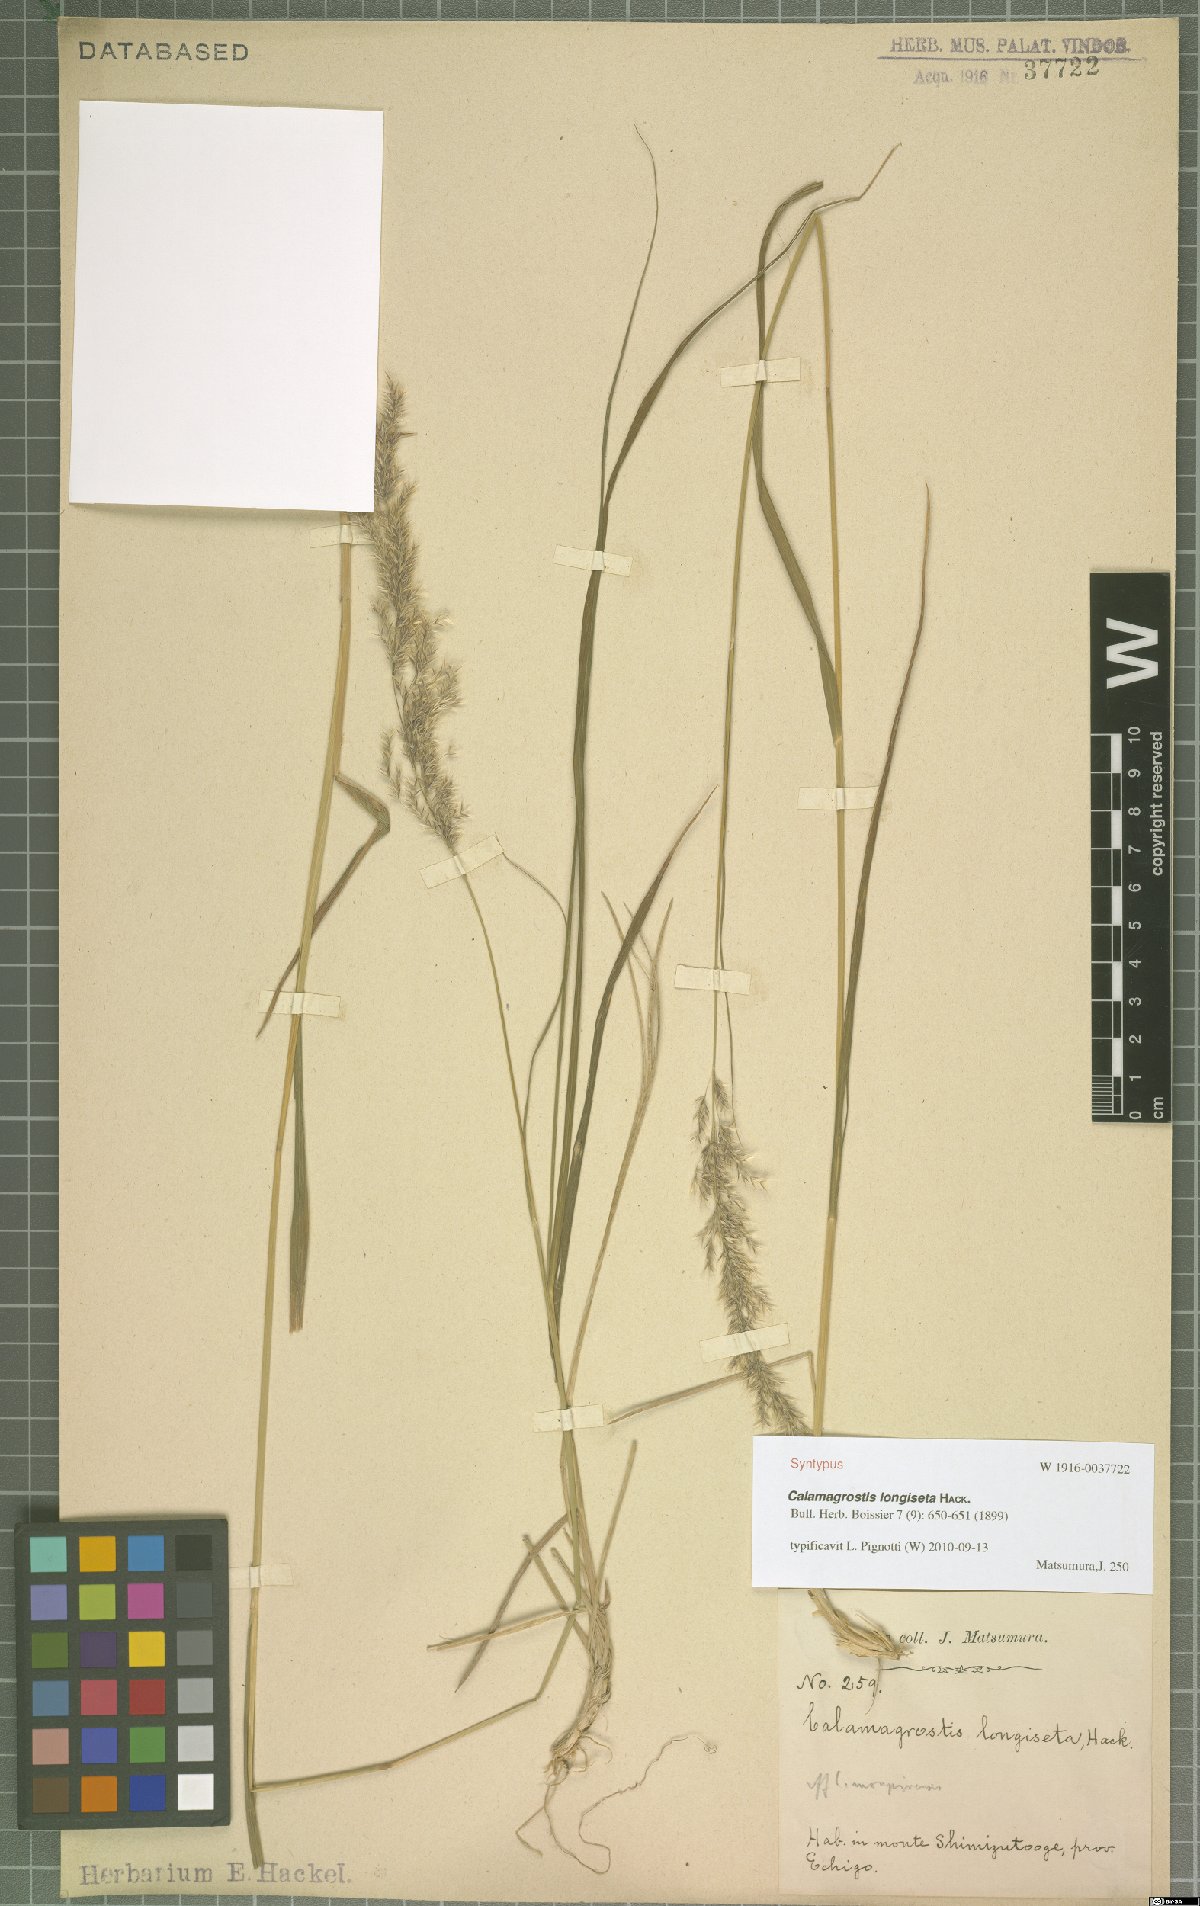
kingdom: Plantae
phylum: Tracheophyta
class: Liliopsida
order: Poales
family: Poaceae
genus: Calamagrostis
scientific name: Calamagrostis longiseta
